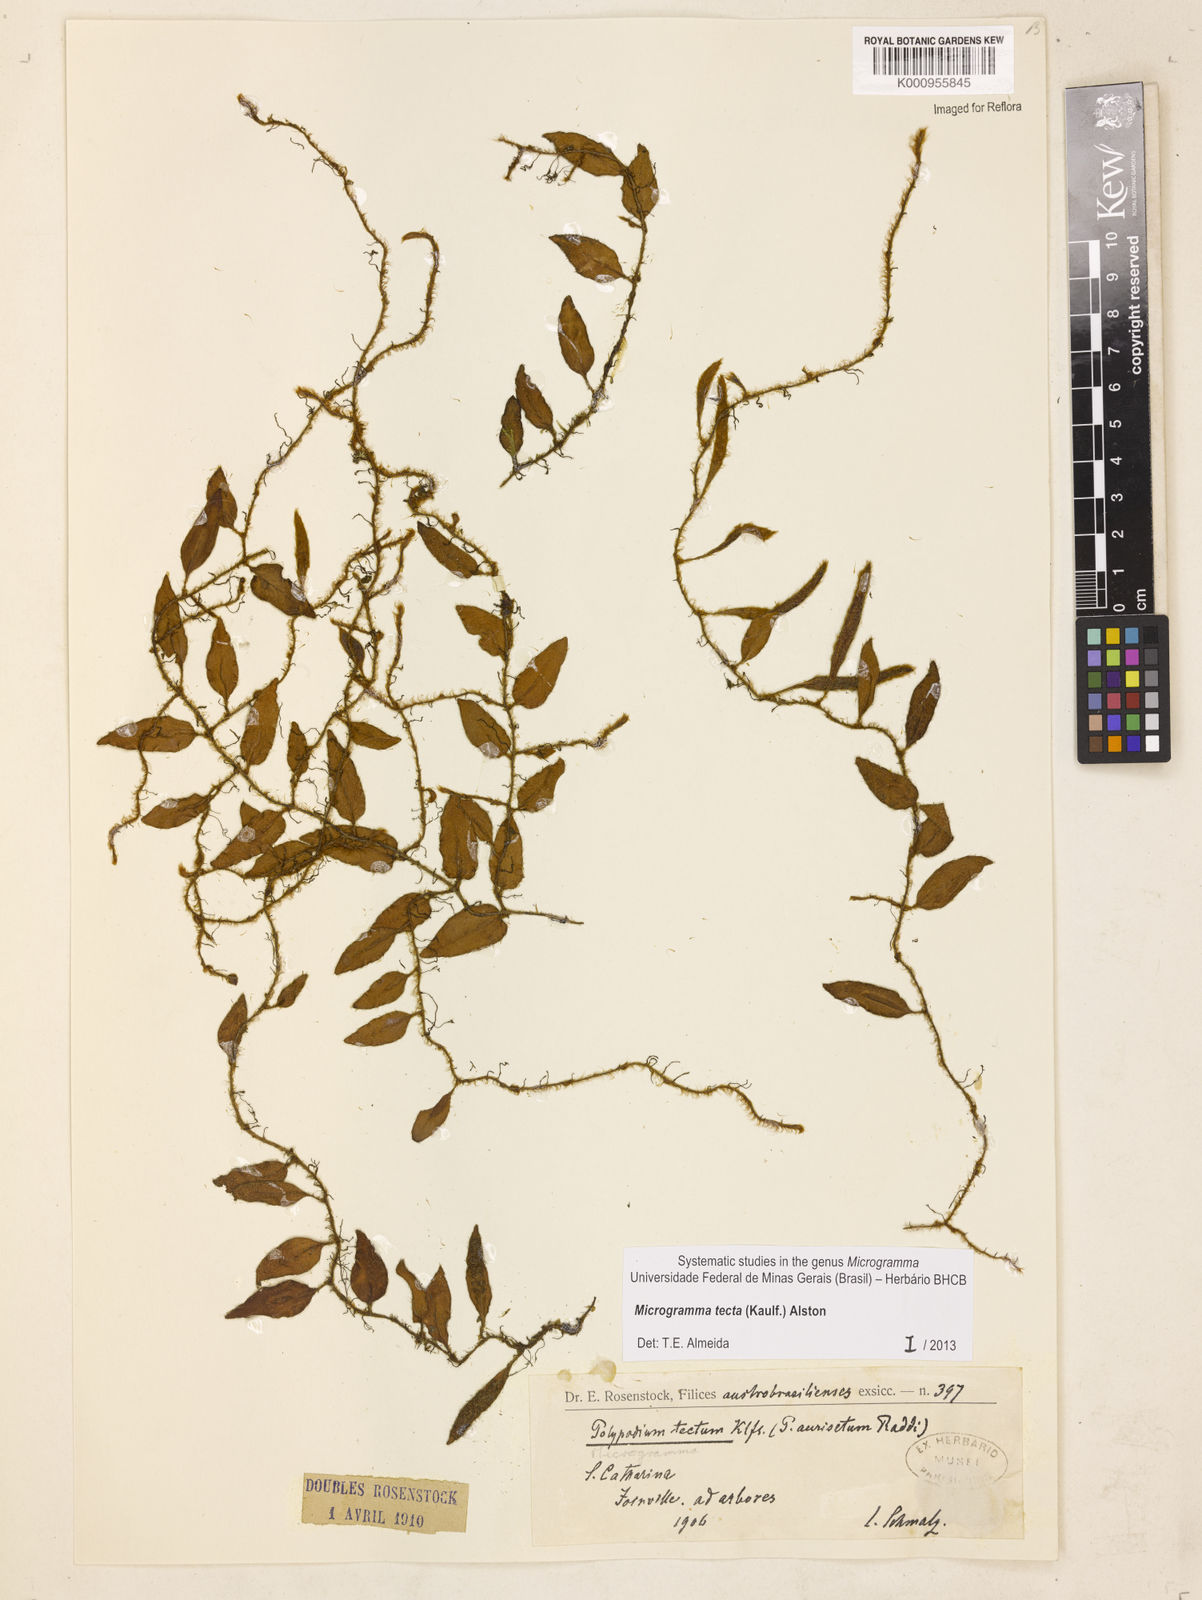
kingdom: Plantae
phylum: Tracheophyta
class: Polypodiopsida
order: Polypodiales
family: Polypodiaceae
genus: Microgramma
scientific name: Microgramma tecta
